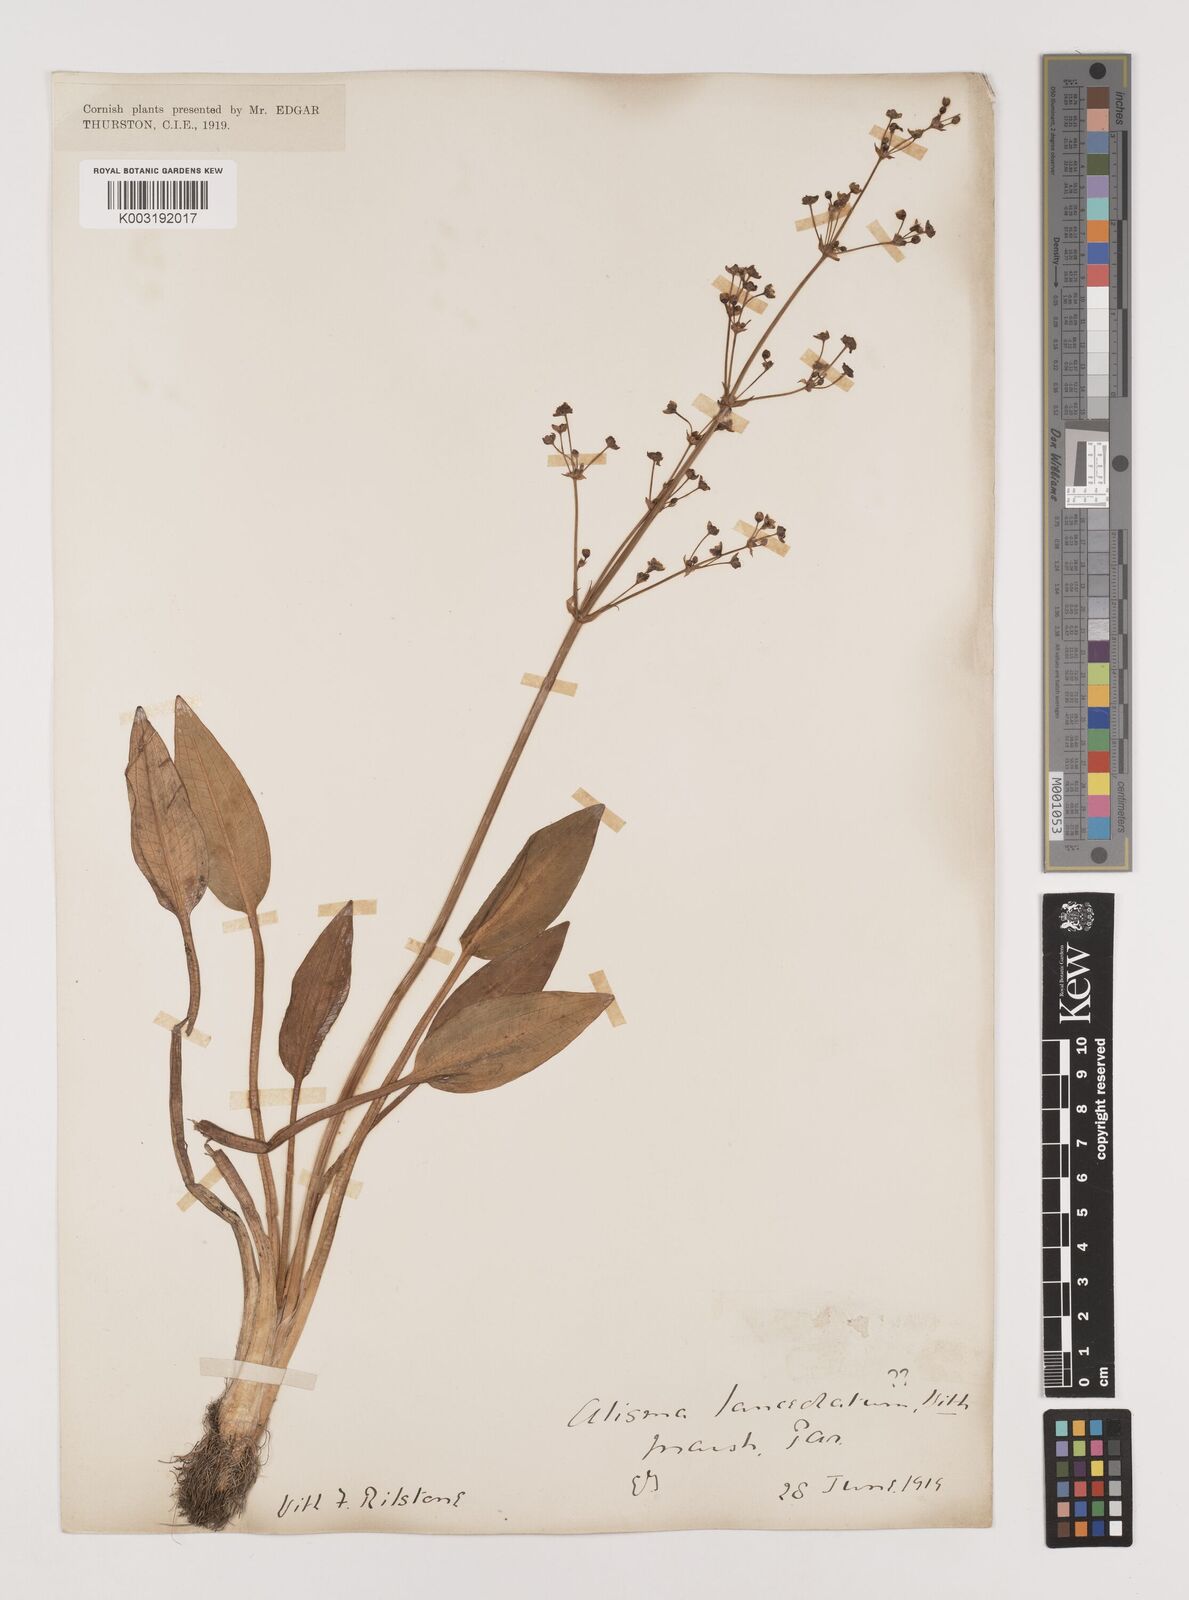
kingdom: Plantae
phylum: Tracheophyta
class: Liliopsida
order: Alismatales
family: Alismataceae
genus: Alisma
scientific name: Alisma plantago-aquatica
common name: Water-plantain
